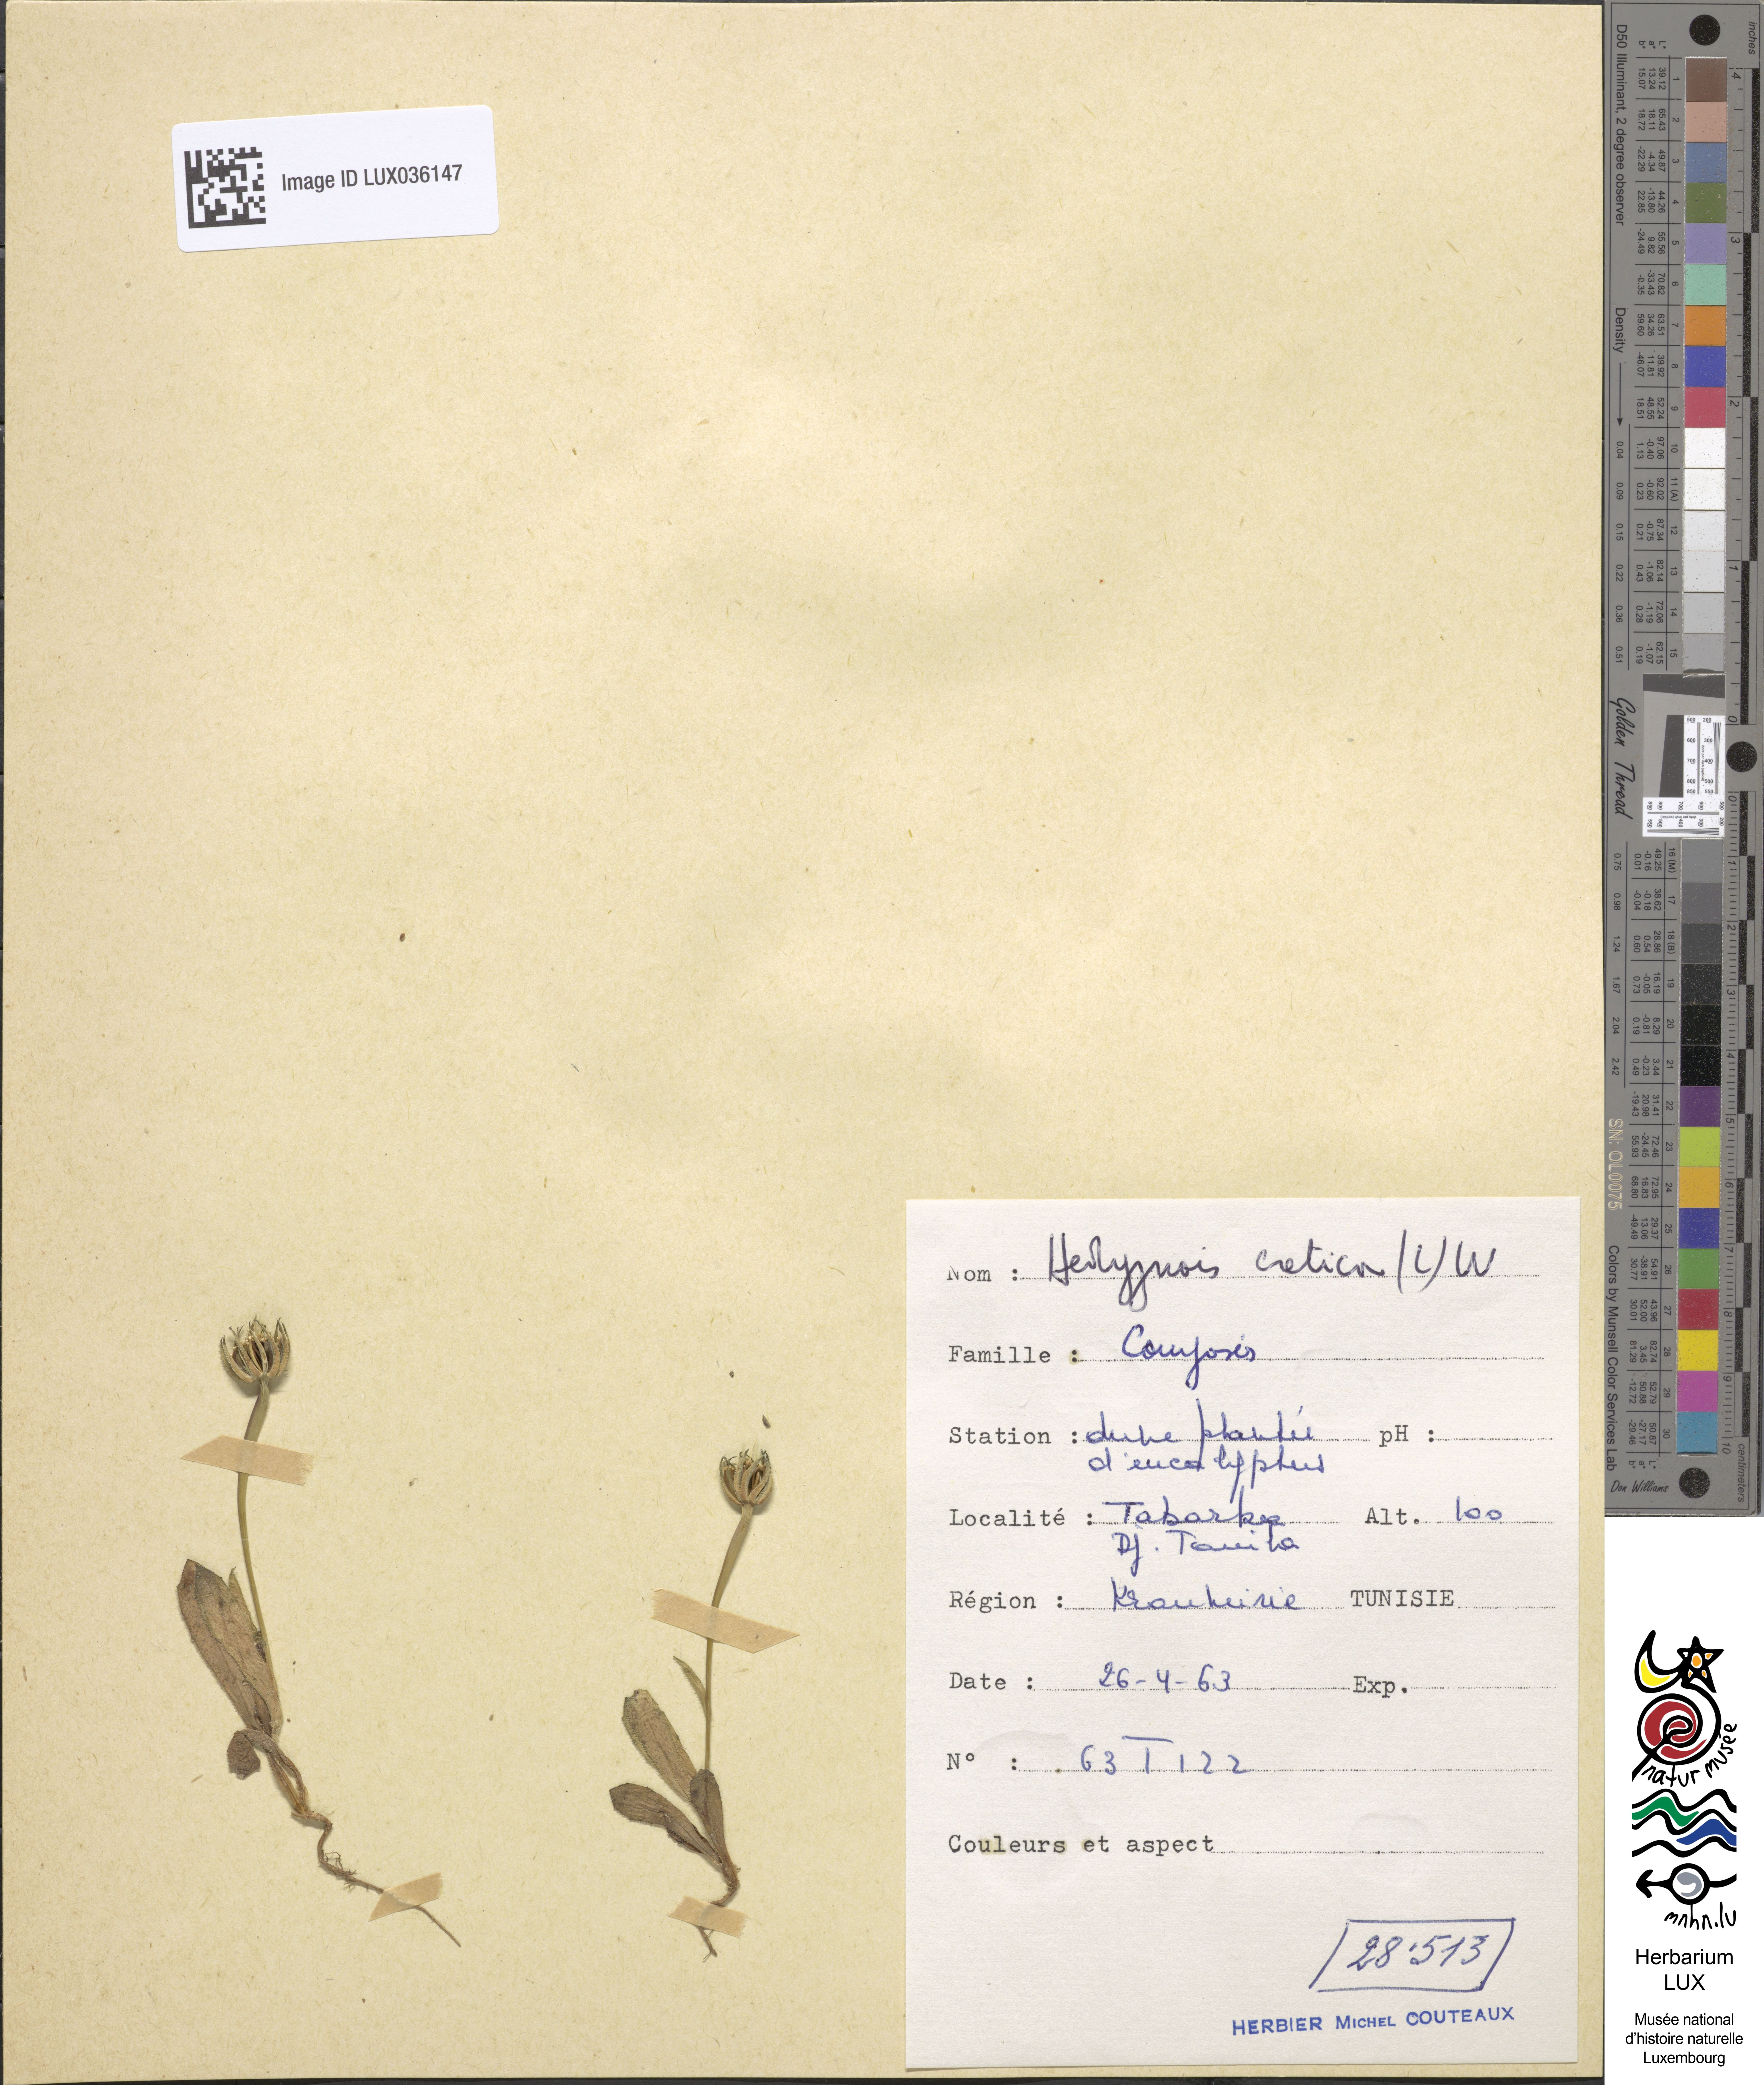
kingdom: Plantae
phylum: Tracheophyta
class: Magnoliopsida
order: Asterales
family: Asteraceae
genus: Hedypnois
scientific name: Hedypnois cretica
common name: Scaly hawkbit
